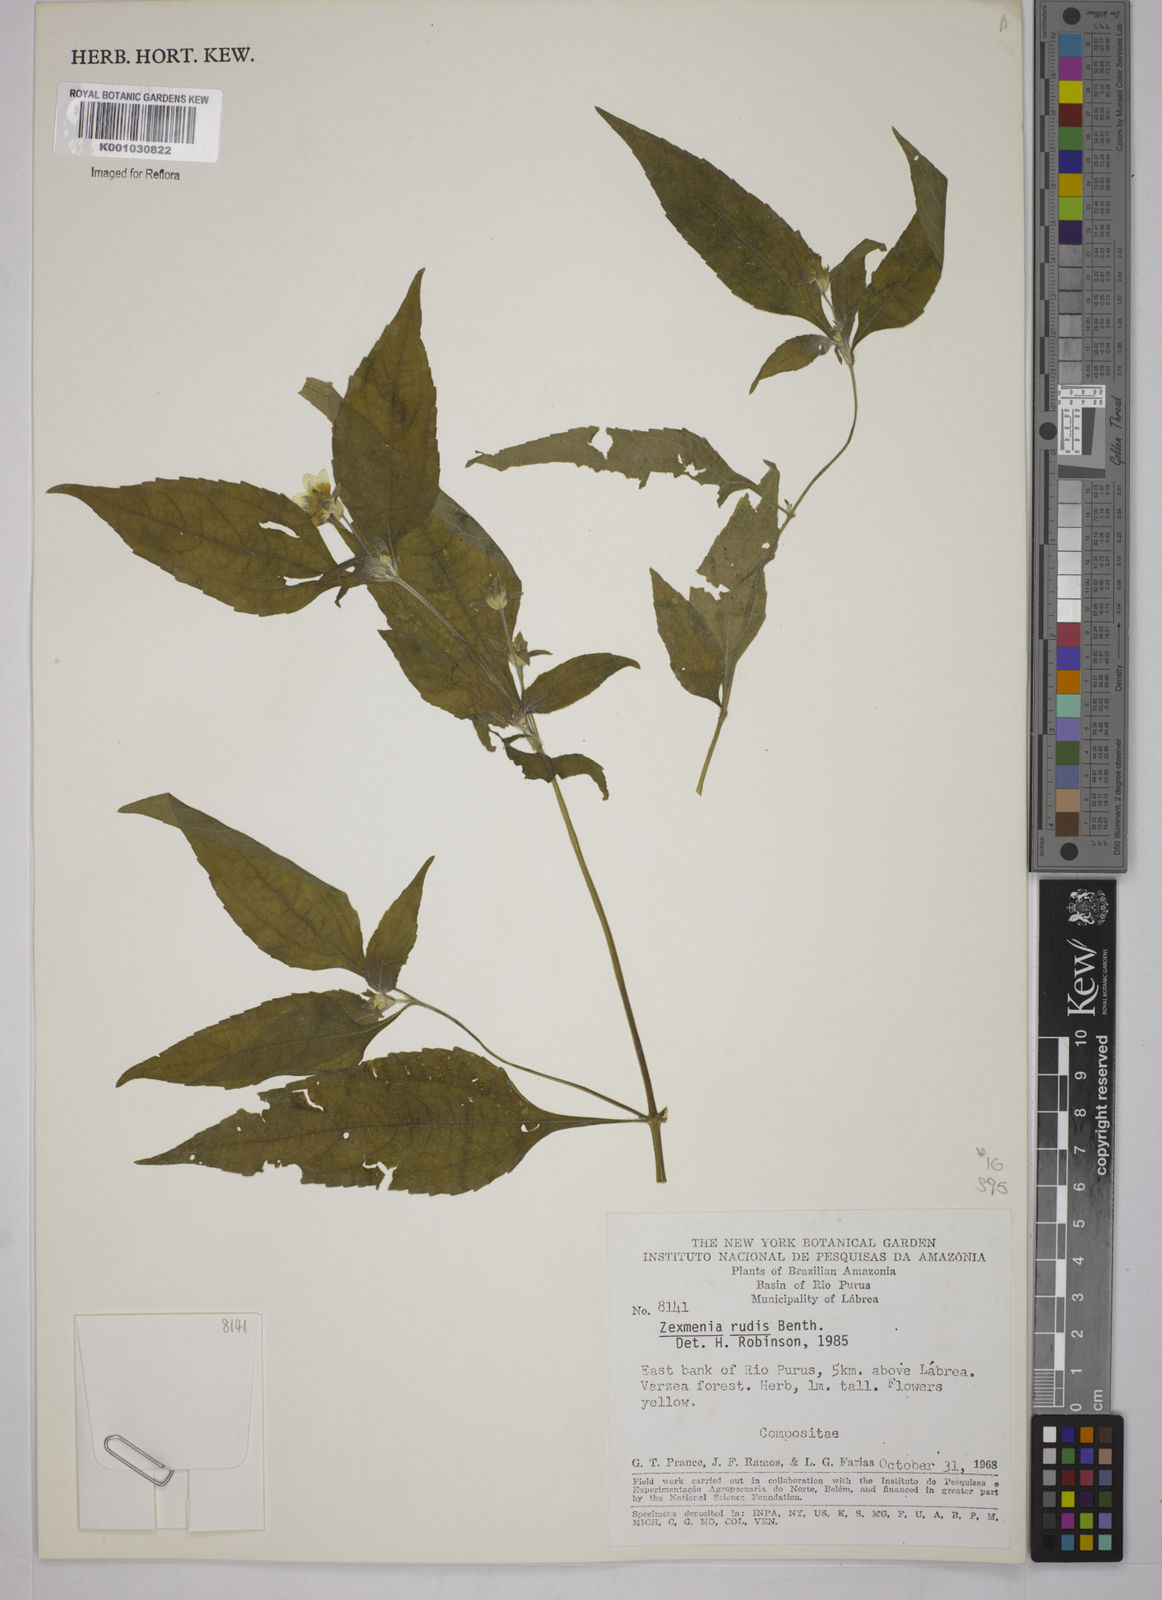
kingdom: Plantae
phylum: Tracheophyta
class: Magnoliopsida
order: Asterales
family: Asteraceae
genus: Wedelia
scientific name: Wedelia rudis
